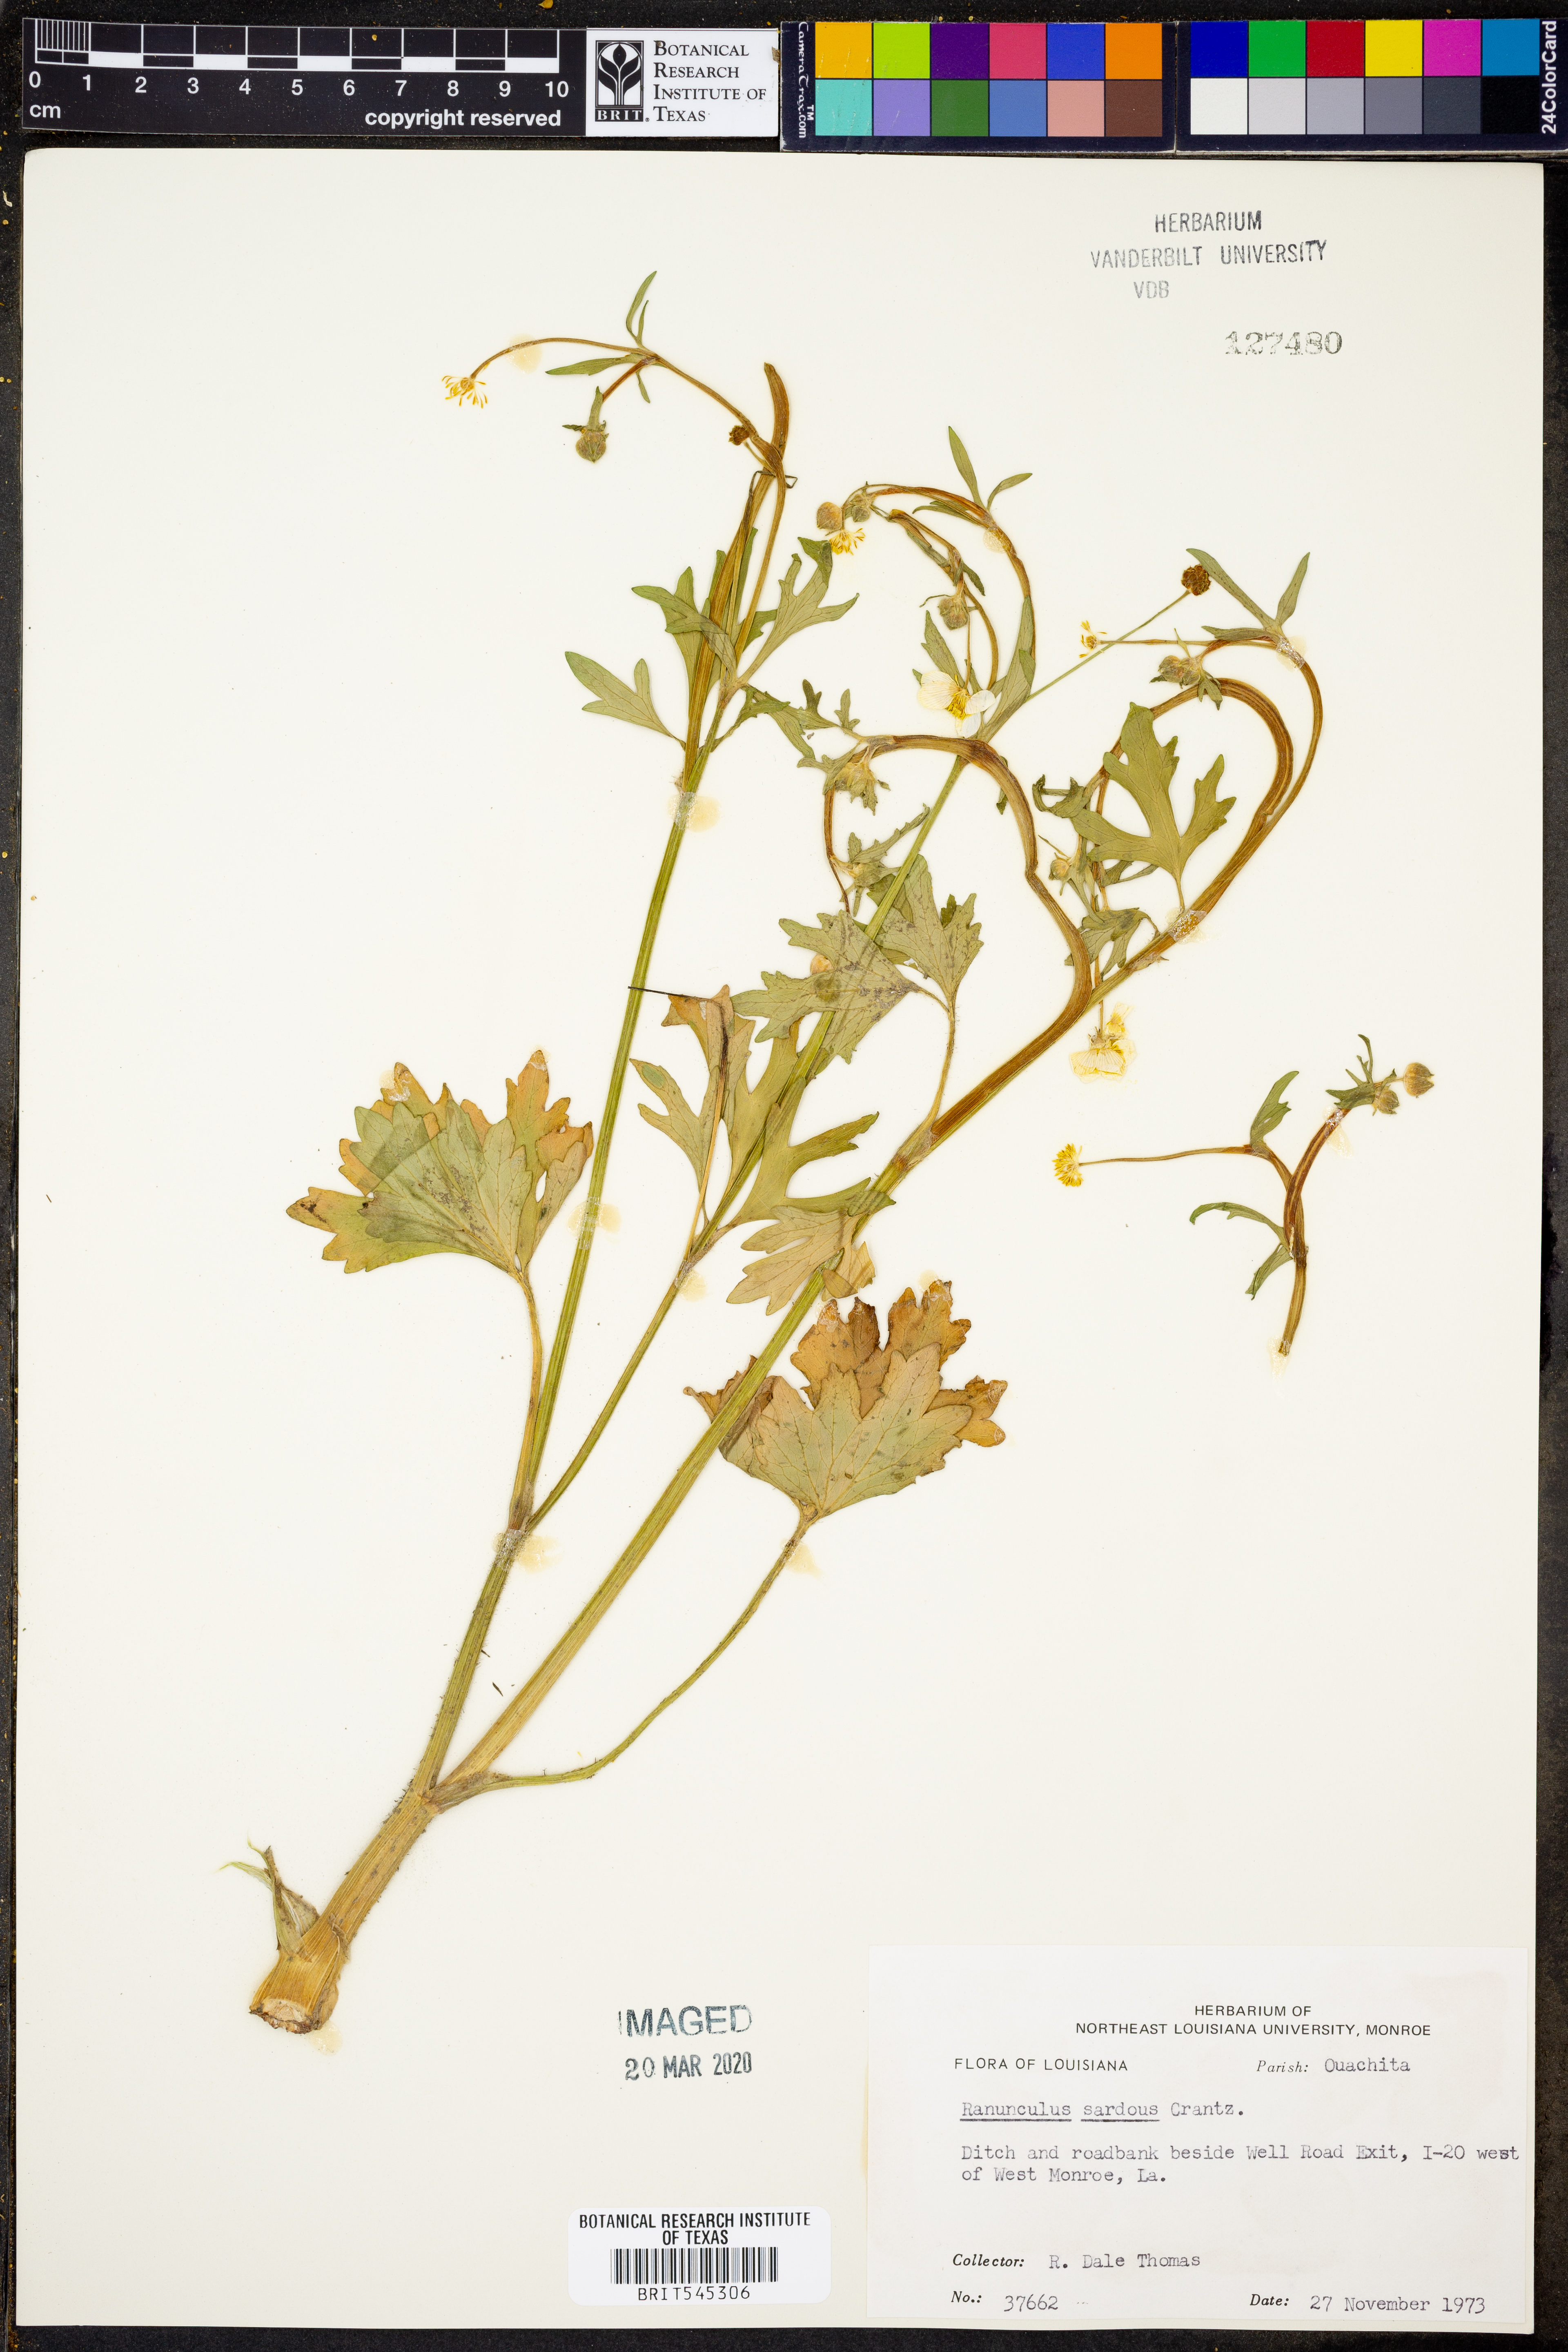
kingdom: Plantae
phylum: Tracheophyta
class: Magnoliopsida
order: Ranunculales
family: Ranunculaceae
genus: Ranunculus
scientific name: Ranunculus sardous
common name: Hairy buttercup
